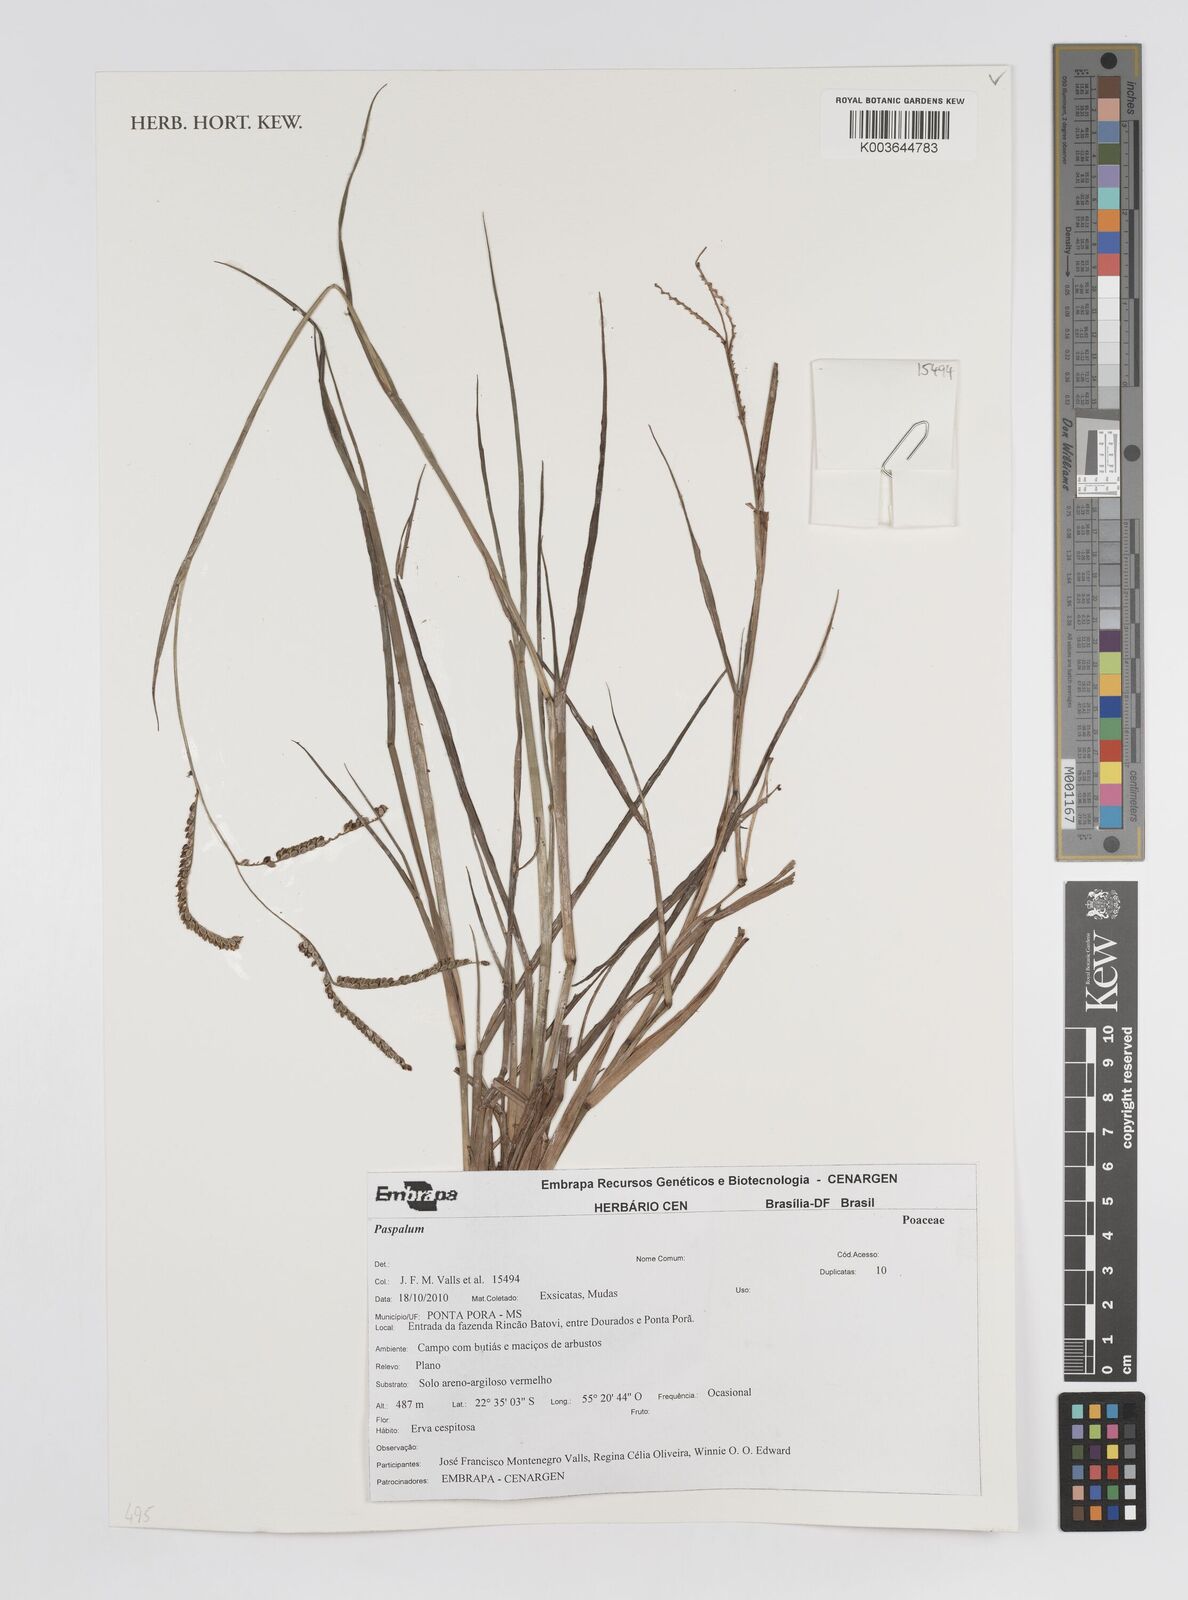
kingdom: Plantae
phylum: Tracheophyta
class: Liliopsida
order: Poales
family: Poaceae
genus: Paspalum
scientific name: Paspalum
